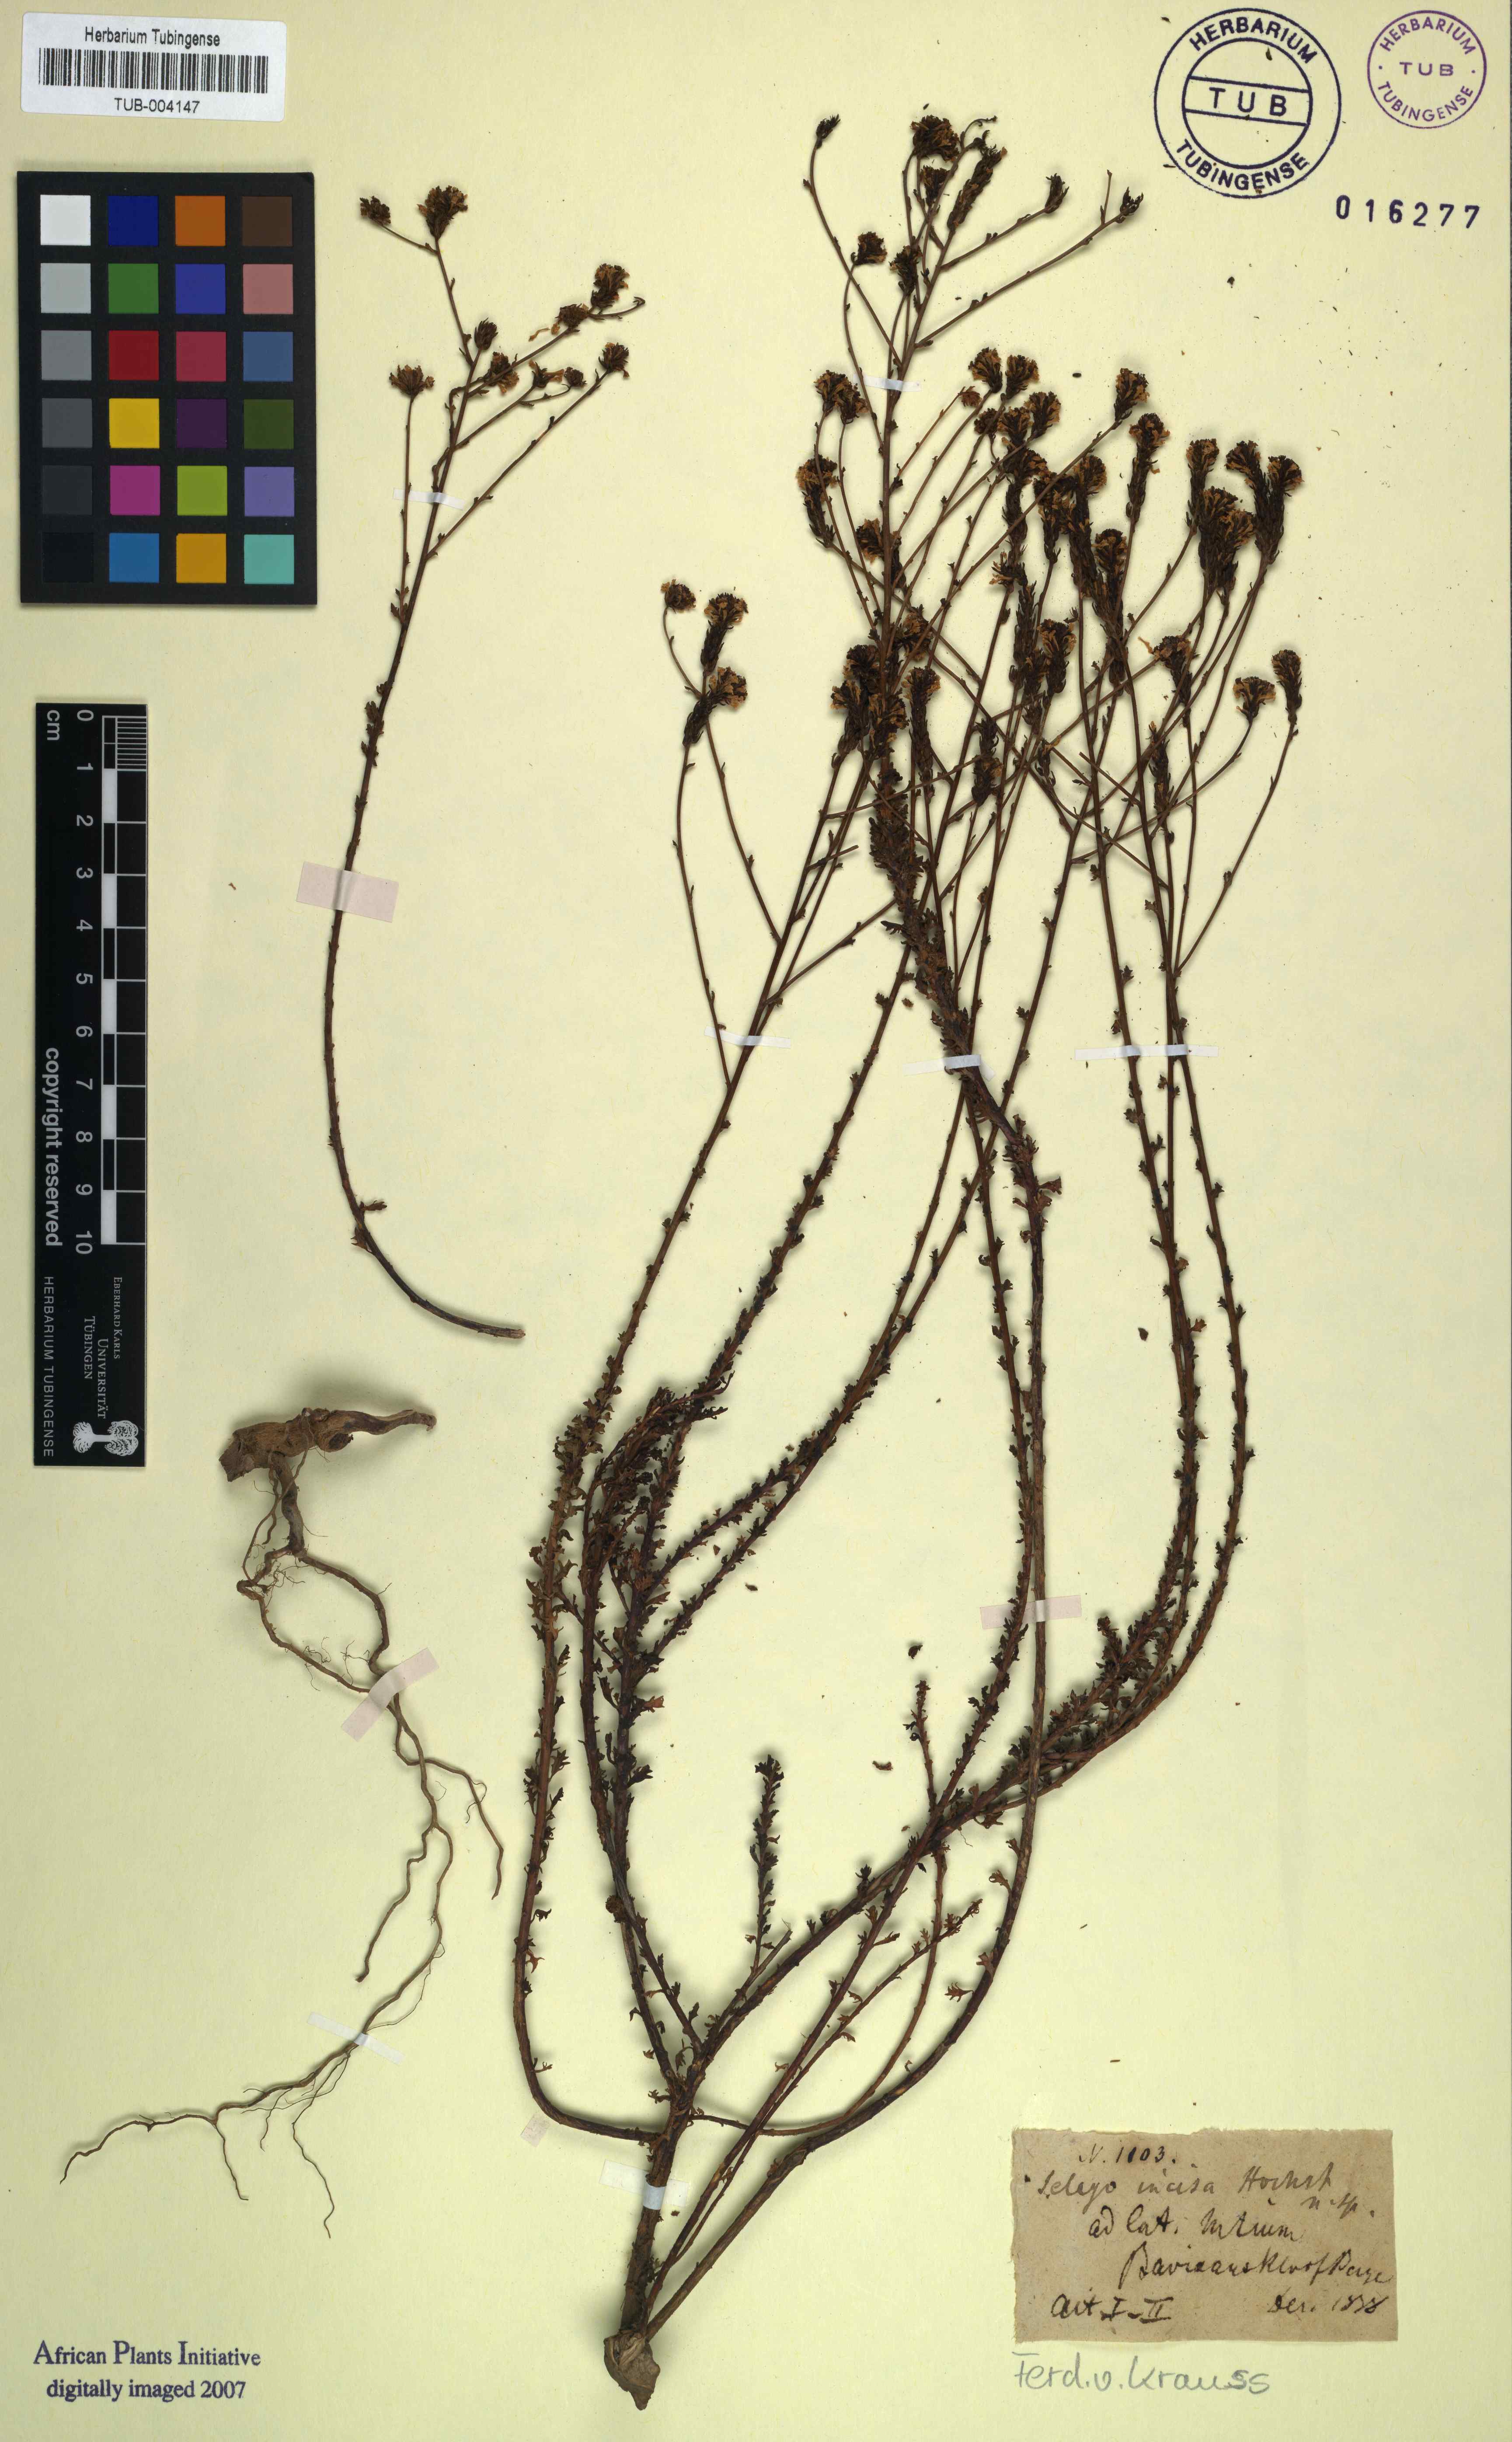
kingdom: Plantae
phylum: Tracheophyta
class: Magnoliopsida
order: Asterales
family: Asteraceae
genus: Helichrysum
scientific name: Helichrysum callunoides
